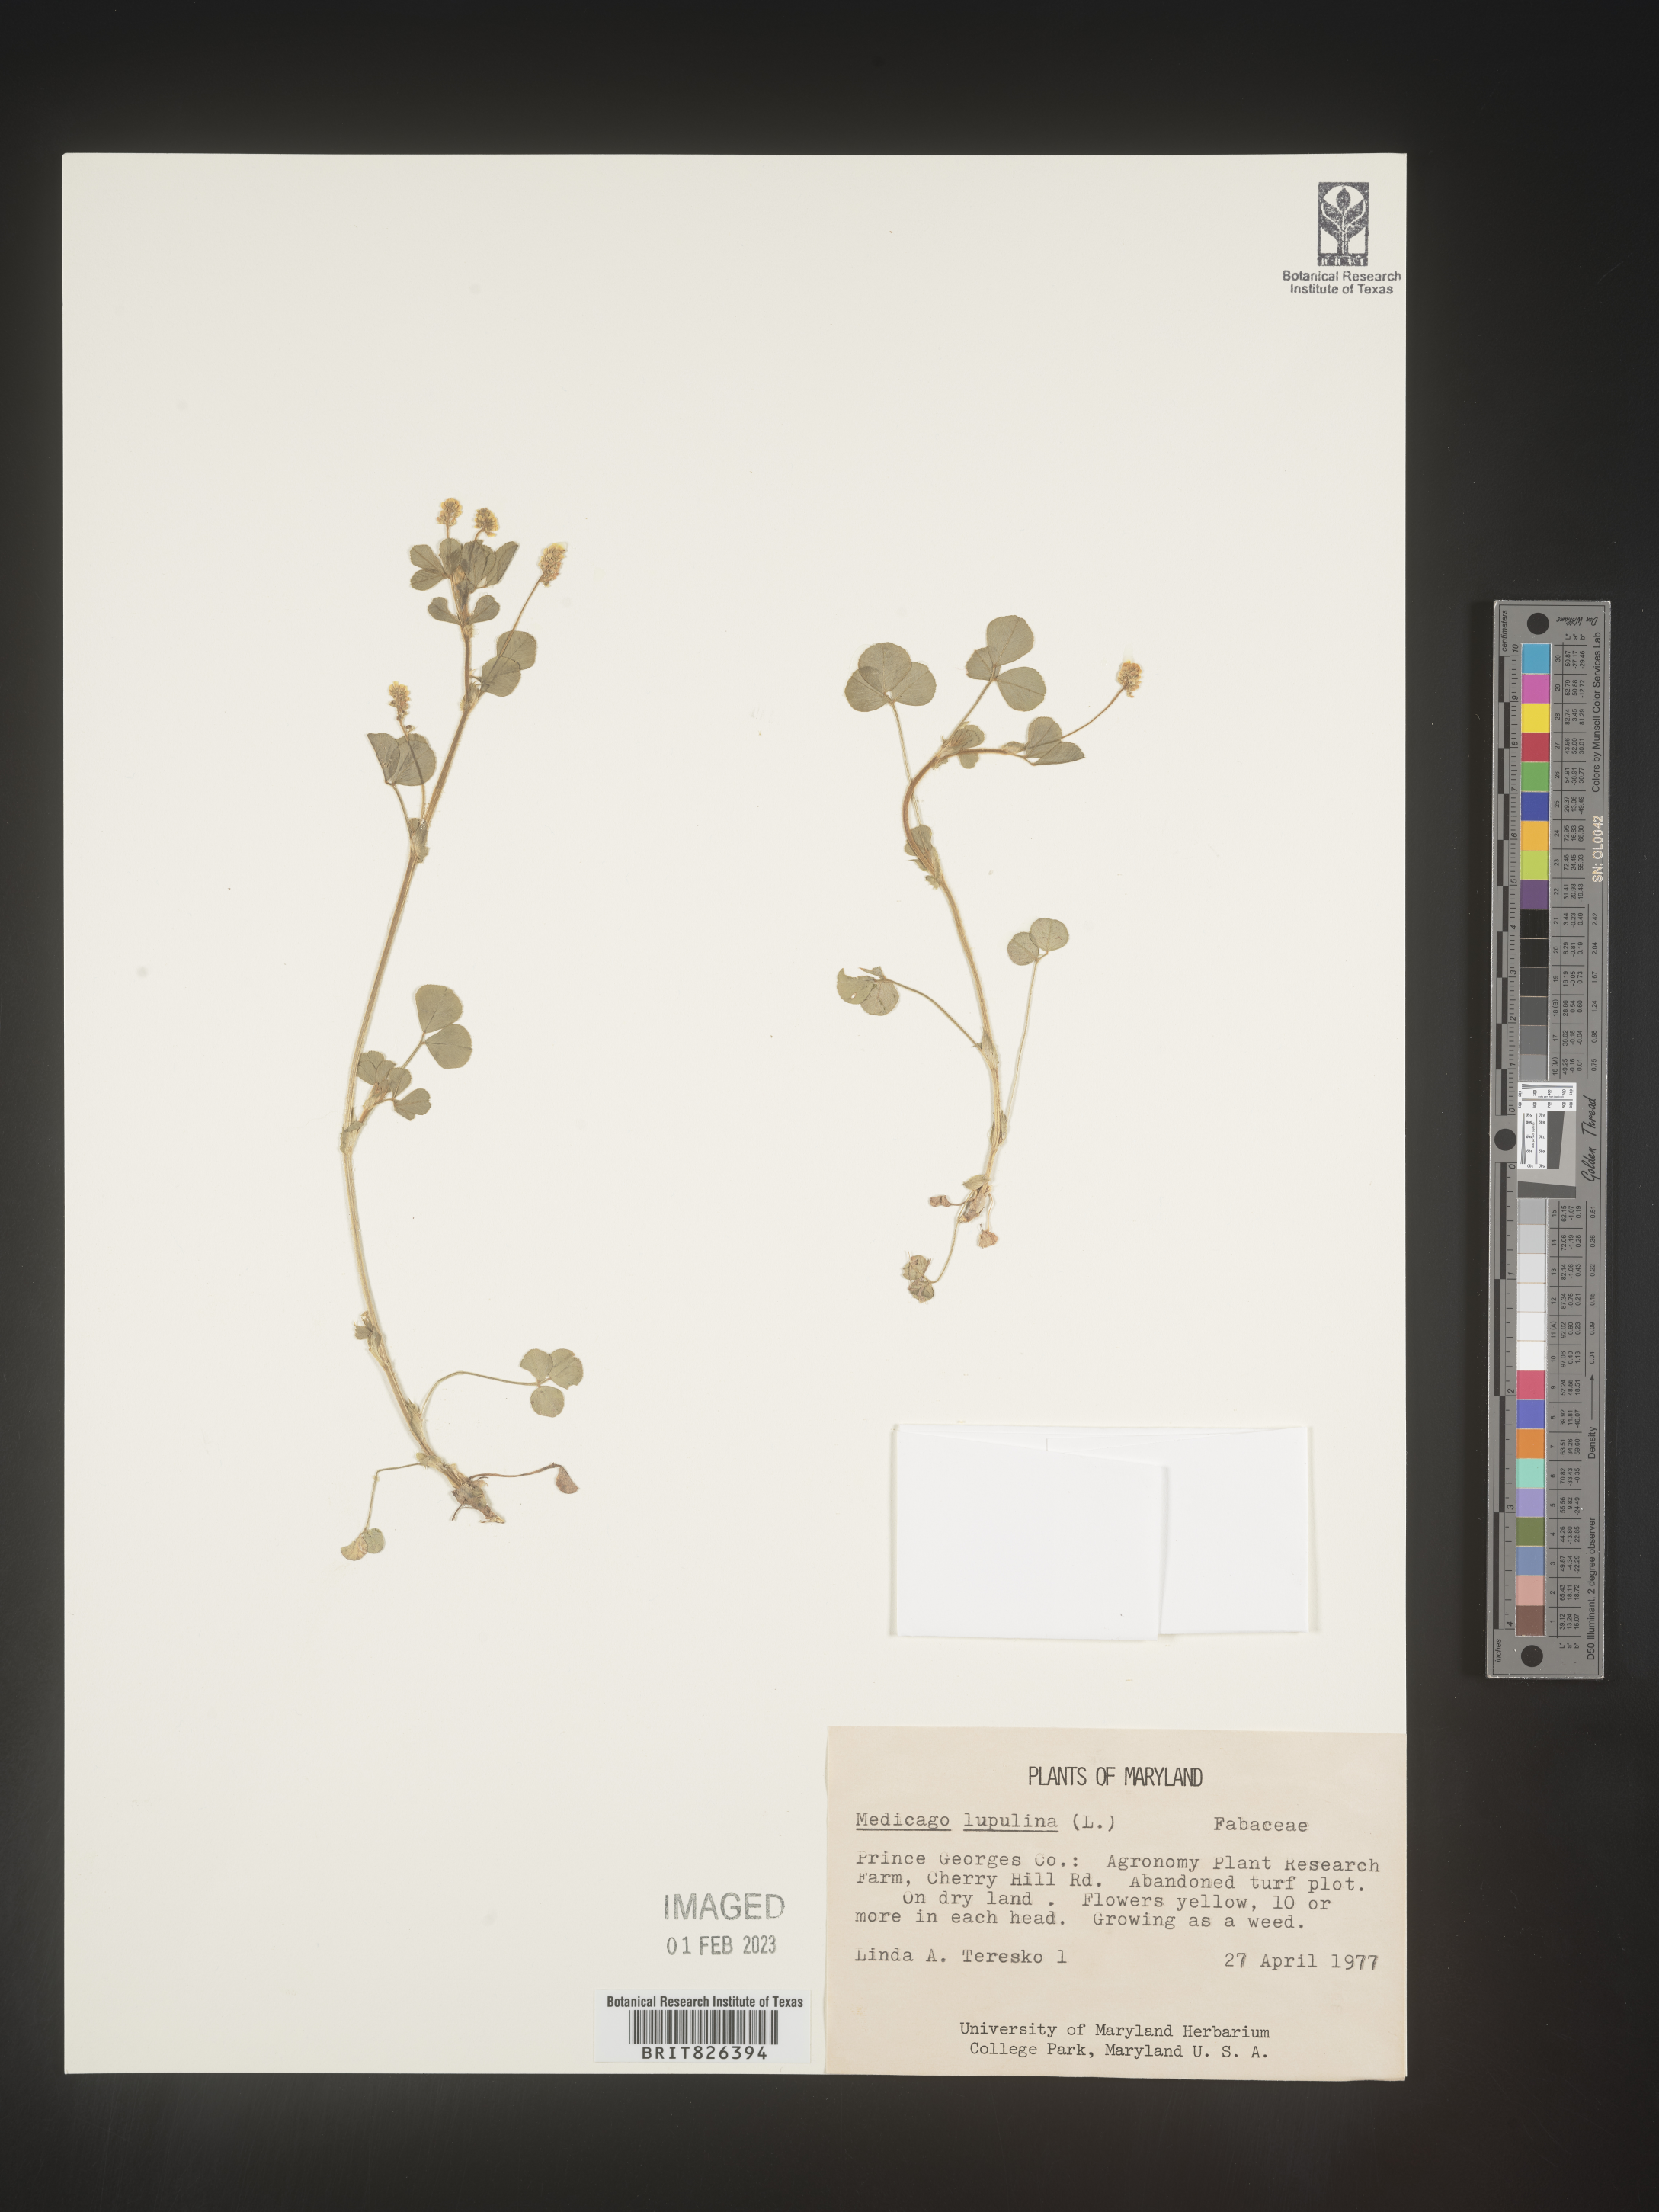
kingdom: Plantae
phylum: Tracheophyta
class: Magnoliopsida
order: Fabales
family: Fabaceae
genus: Medicago
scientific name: Medicago lupulina
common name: Black medick
